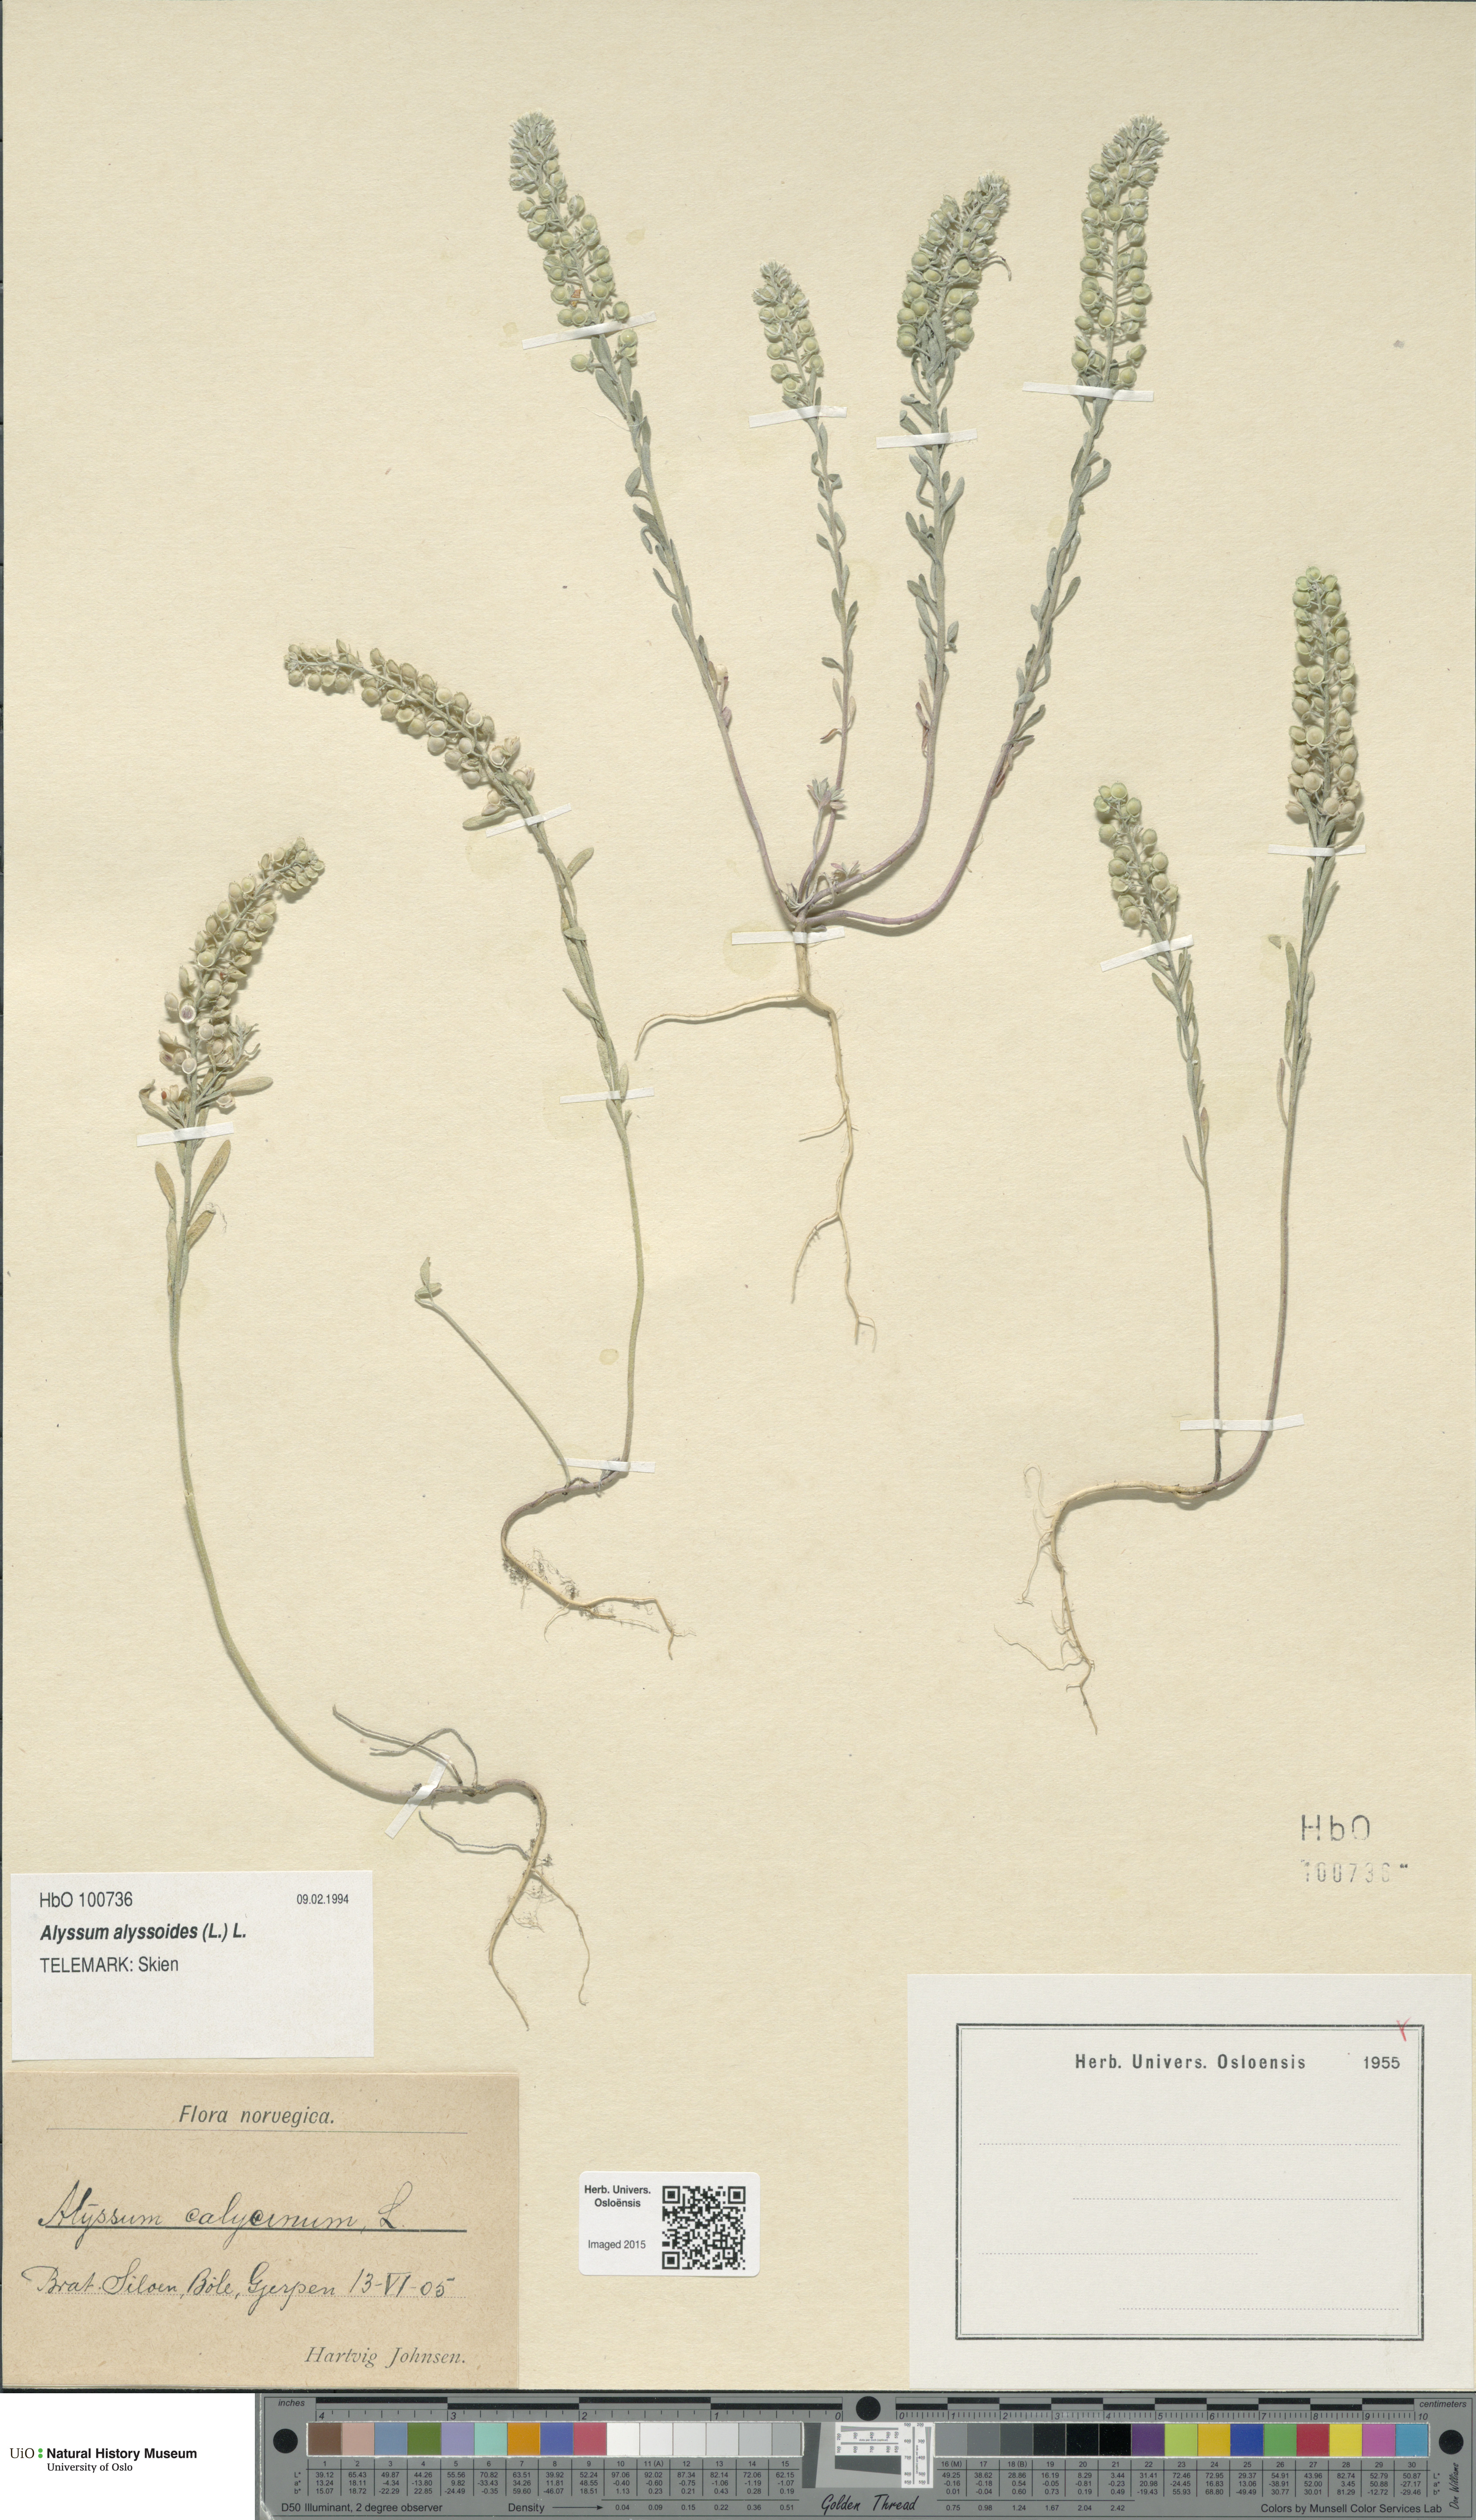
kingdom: Plantae
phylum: Tracheophyta
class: Magnoliopsida
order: Brassicales
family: Brassicaceae
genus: Alyssum
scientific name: Alyssum alyssoides
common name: Small alison
